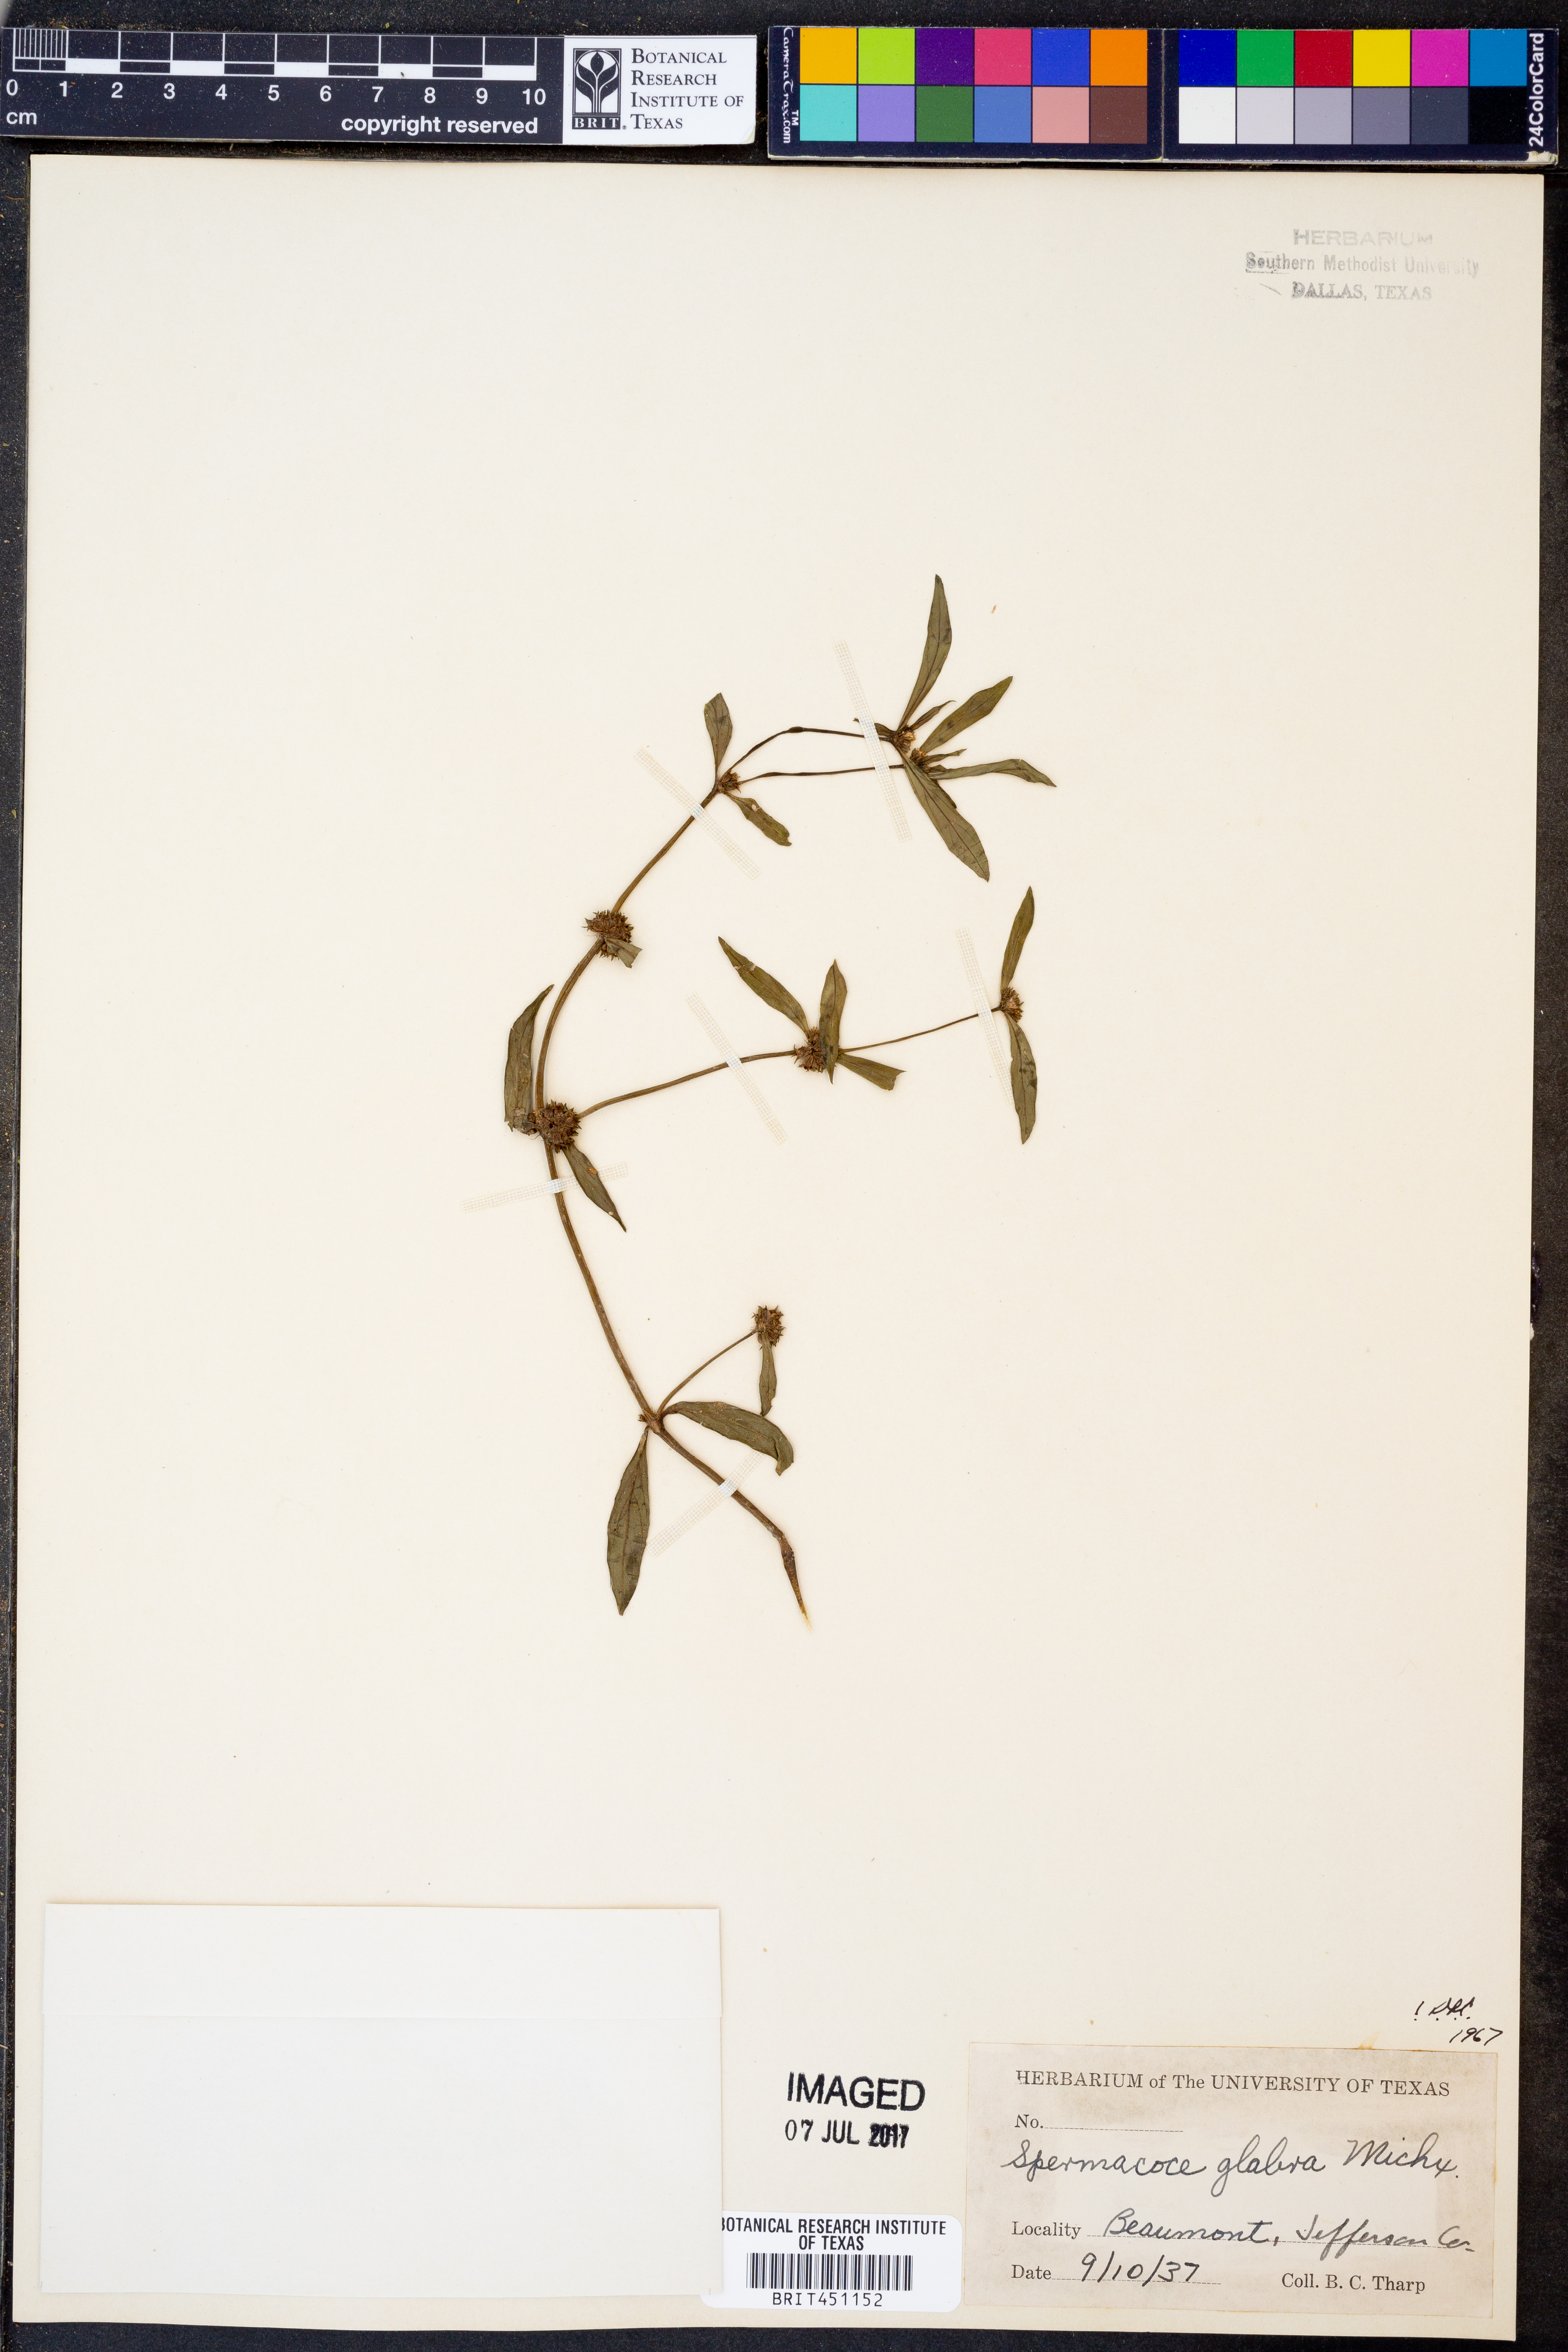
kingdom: Plantae
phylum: Tracheophyta
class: Magnoliopsida
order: Gentianales
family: Rubiaceae
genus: Spermacoce
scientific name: Spermacoce glabra
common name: Smooth buttonweed
